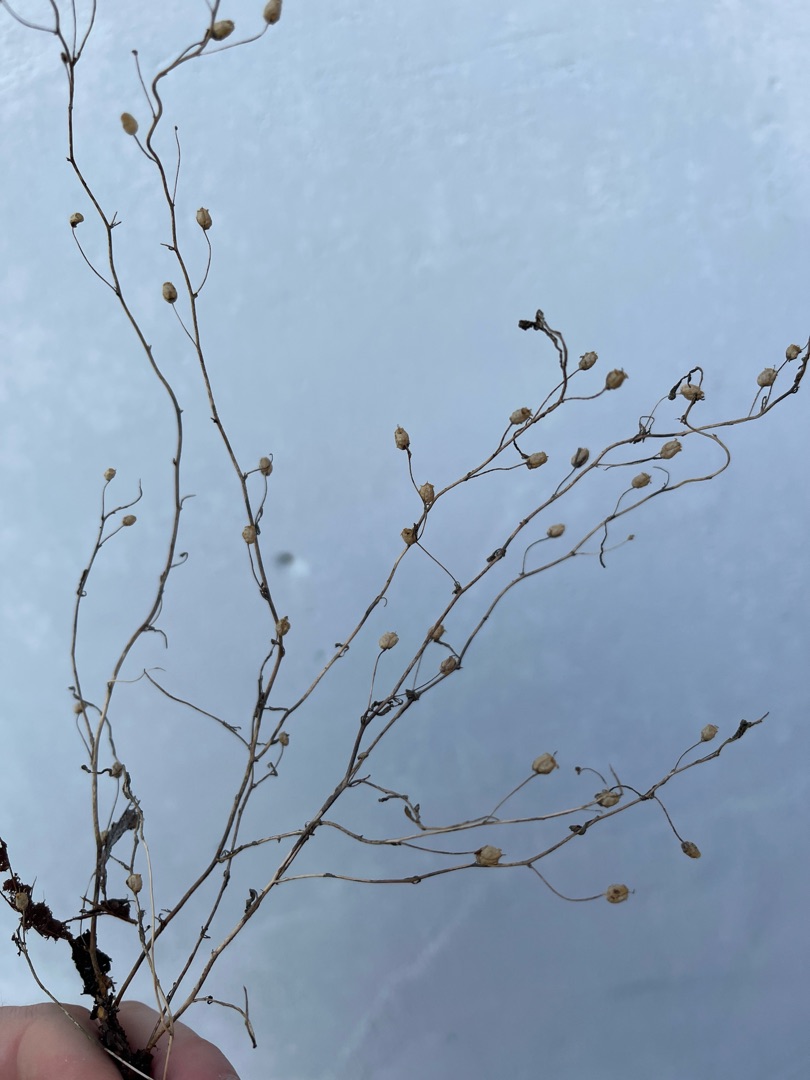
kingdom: Plantae
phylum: Tracheophyta
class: Magnoliopsida
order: Caryophyllales
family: Caryophyllaceae
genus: Arenaria
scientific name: Arenaria serpyllifolia
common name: Almindelig markarve
